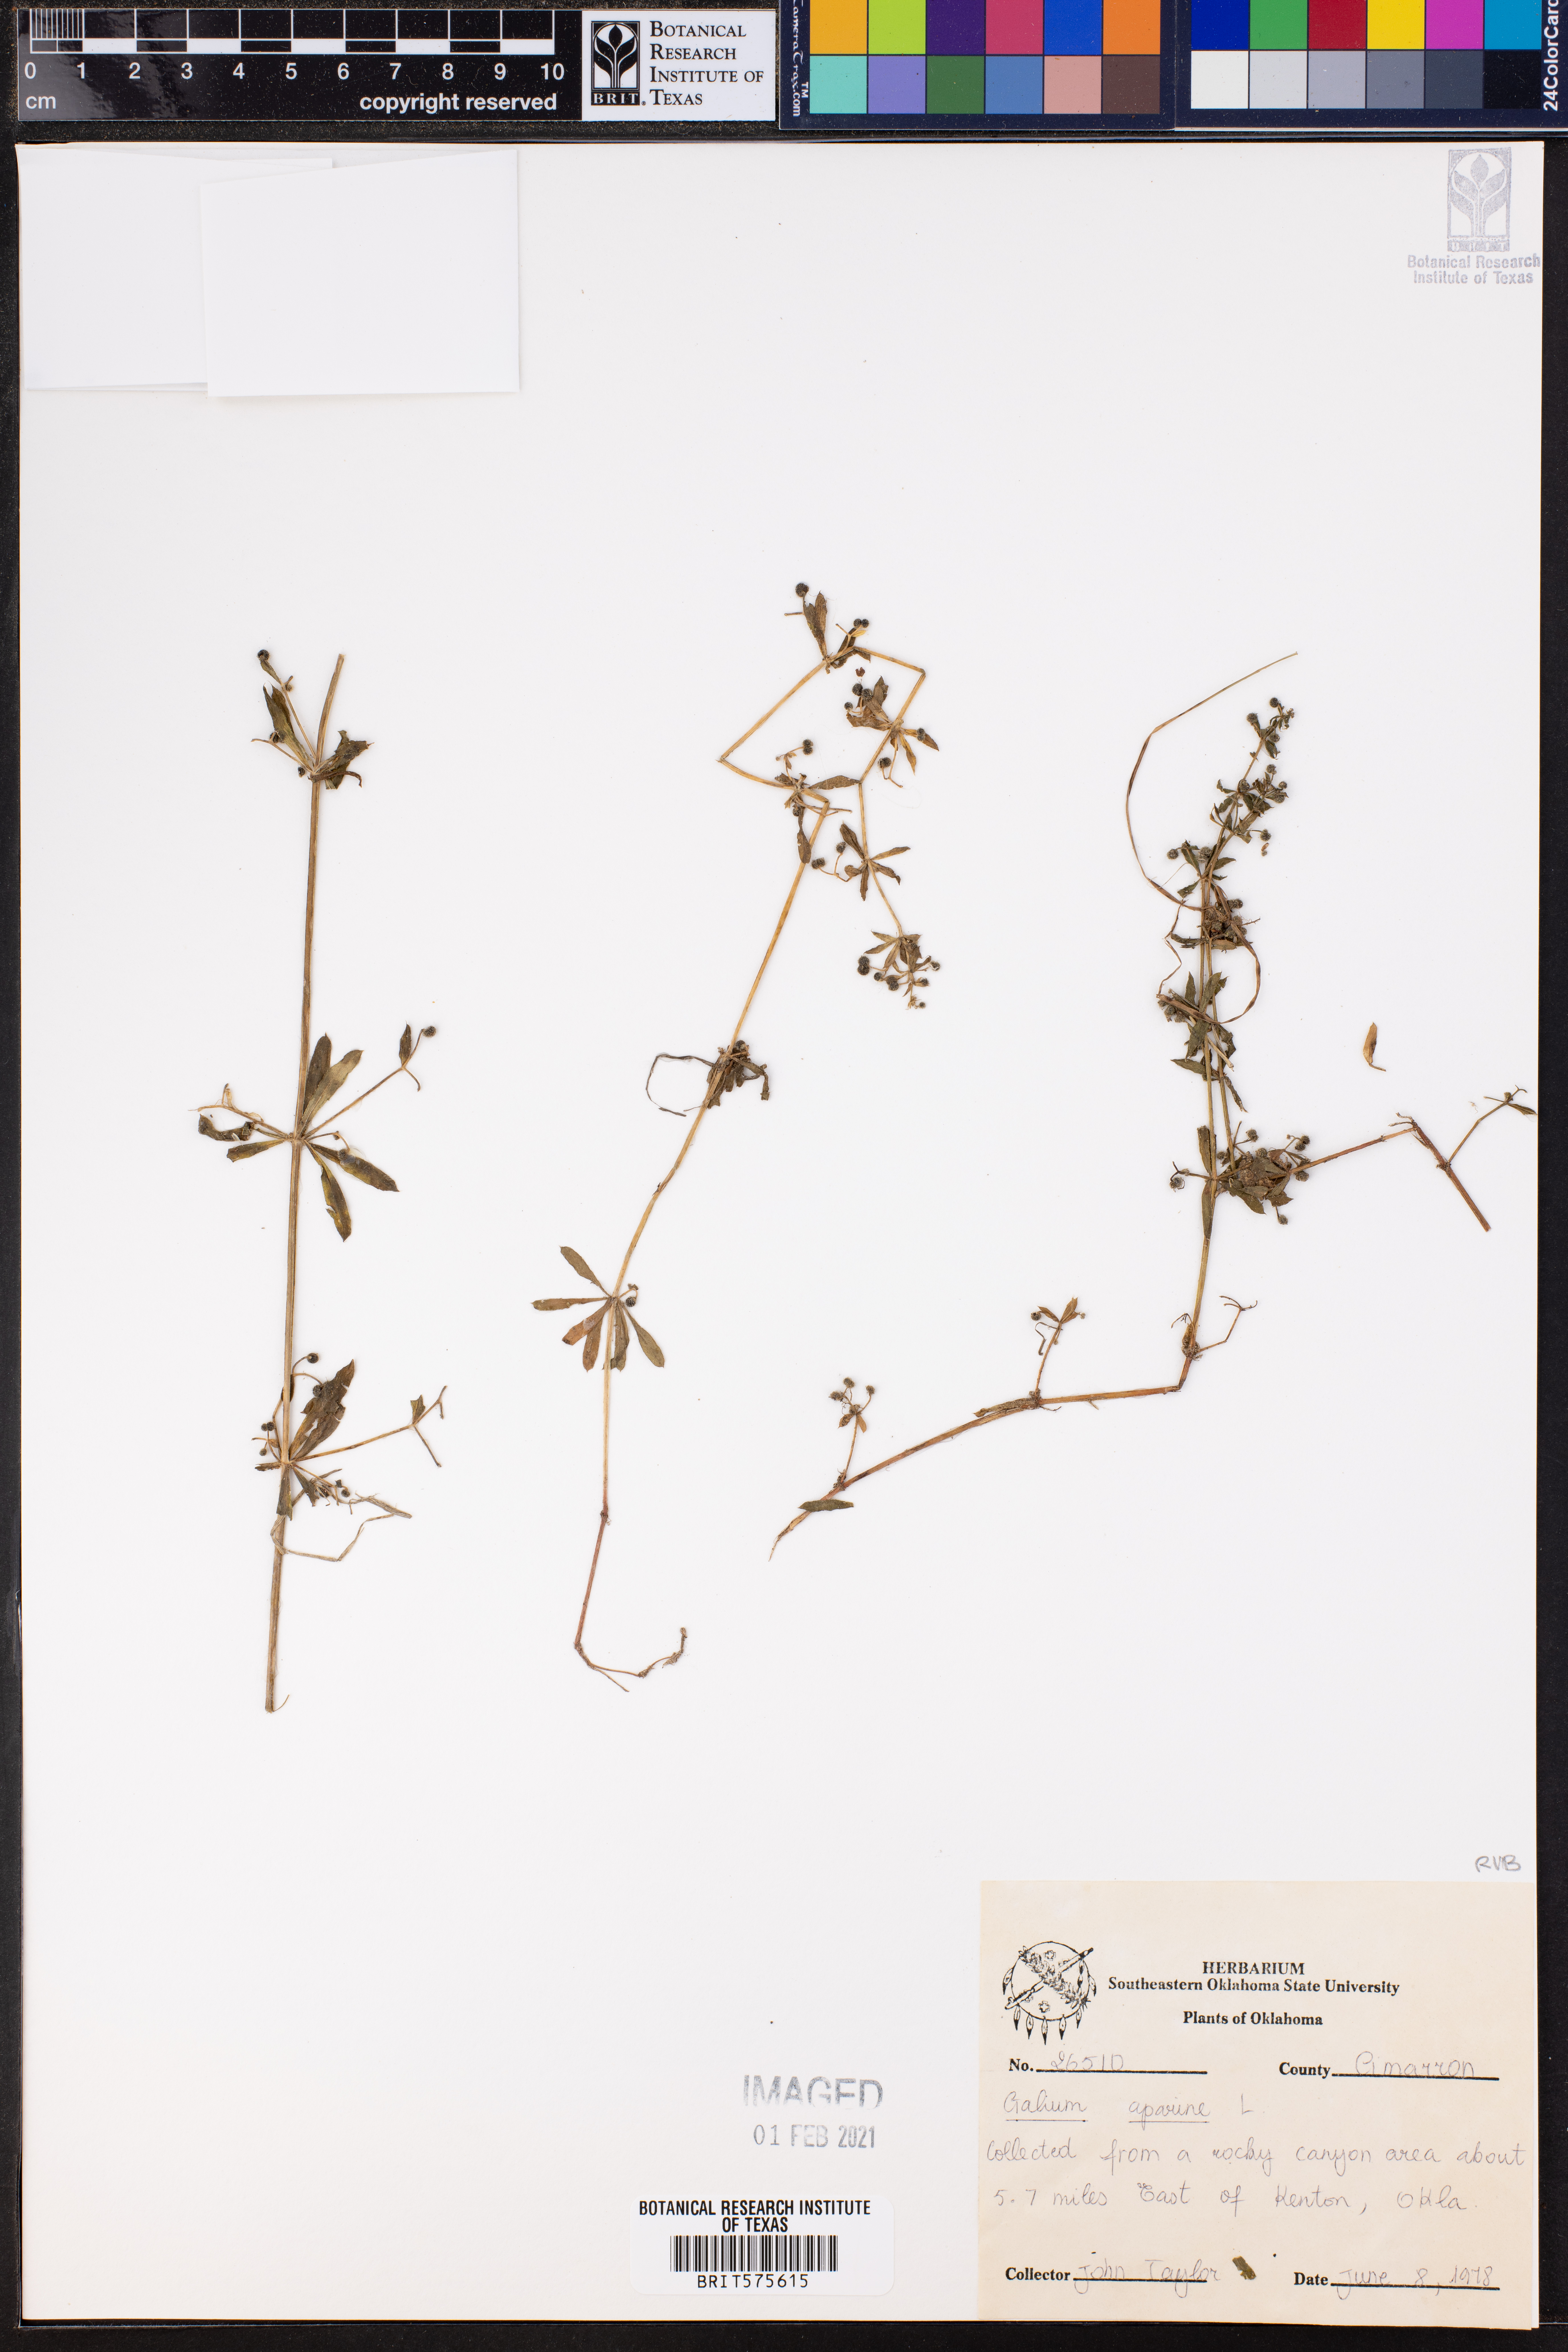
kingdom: Plantae
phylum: Tracheophyta
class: Magnoliopsida
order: Gentianales
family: Rubiaceae
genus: Galium
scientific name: Galium aparine
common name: Cleavers
